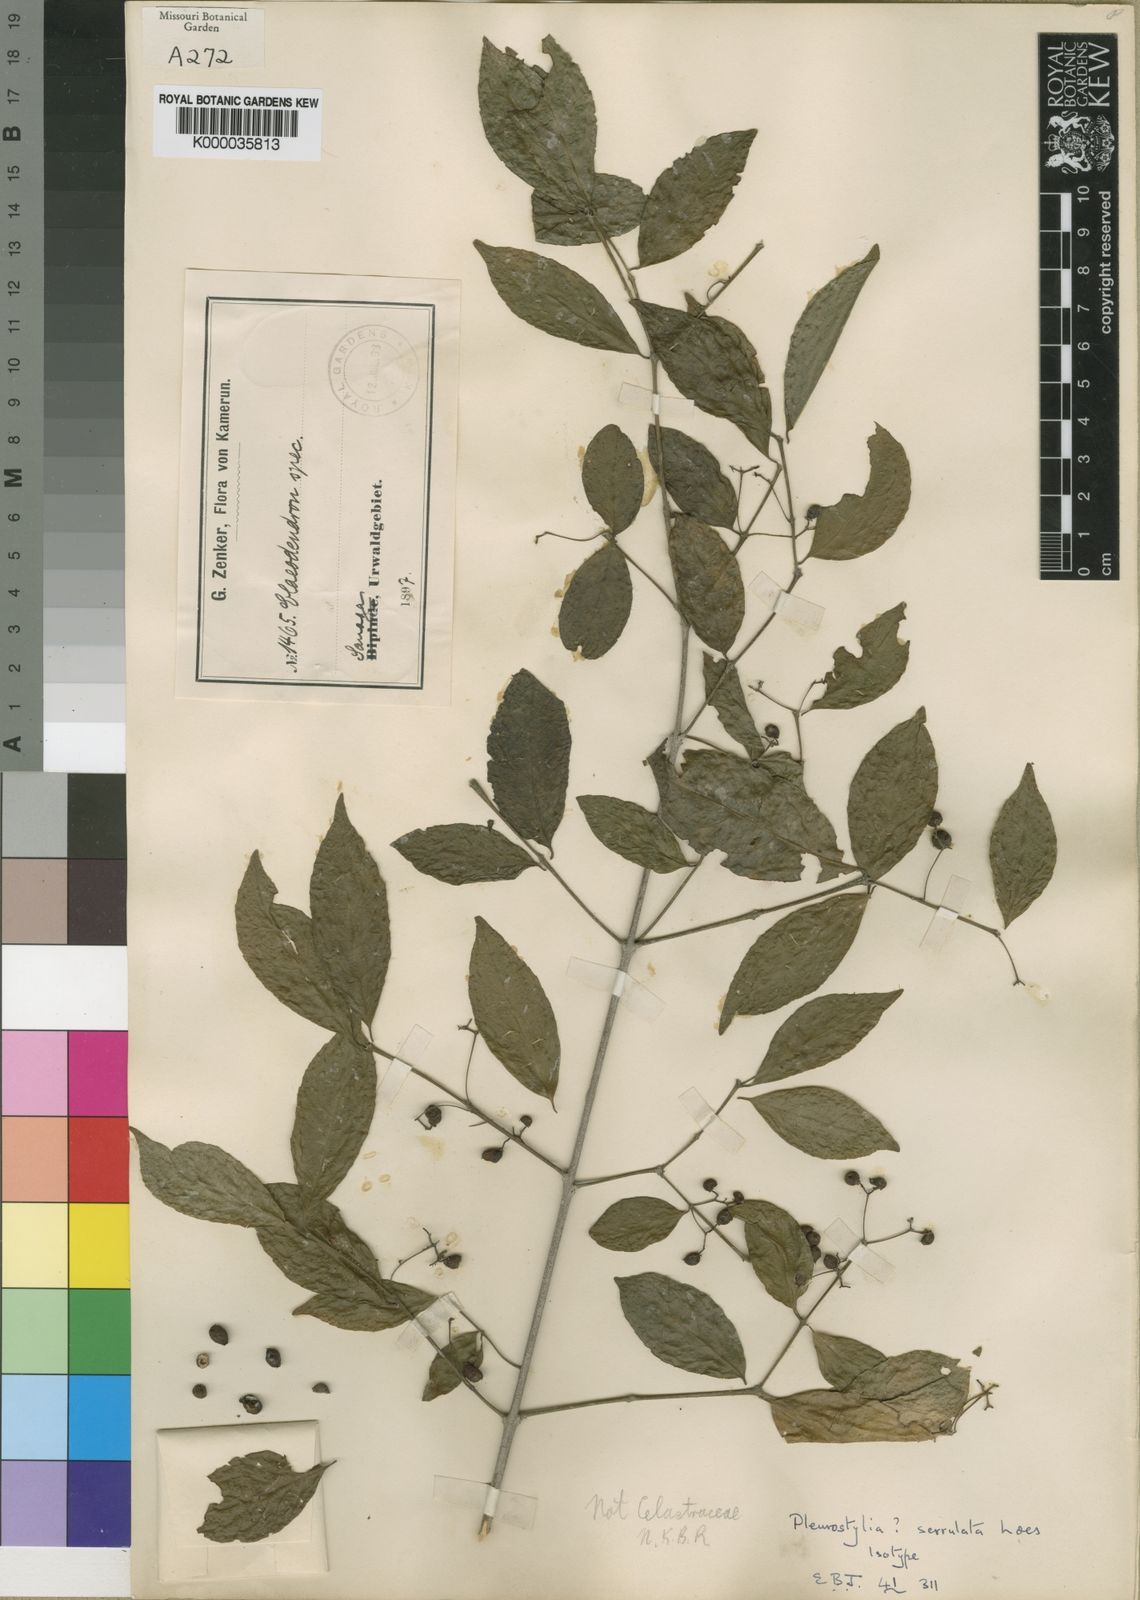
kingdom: Plantae
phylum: Tracheophyta
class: Magnoliopsida
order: Celastrales
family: Celastraceae
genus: Crossopetalum
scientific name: Crossopetalum serrulatum
